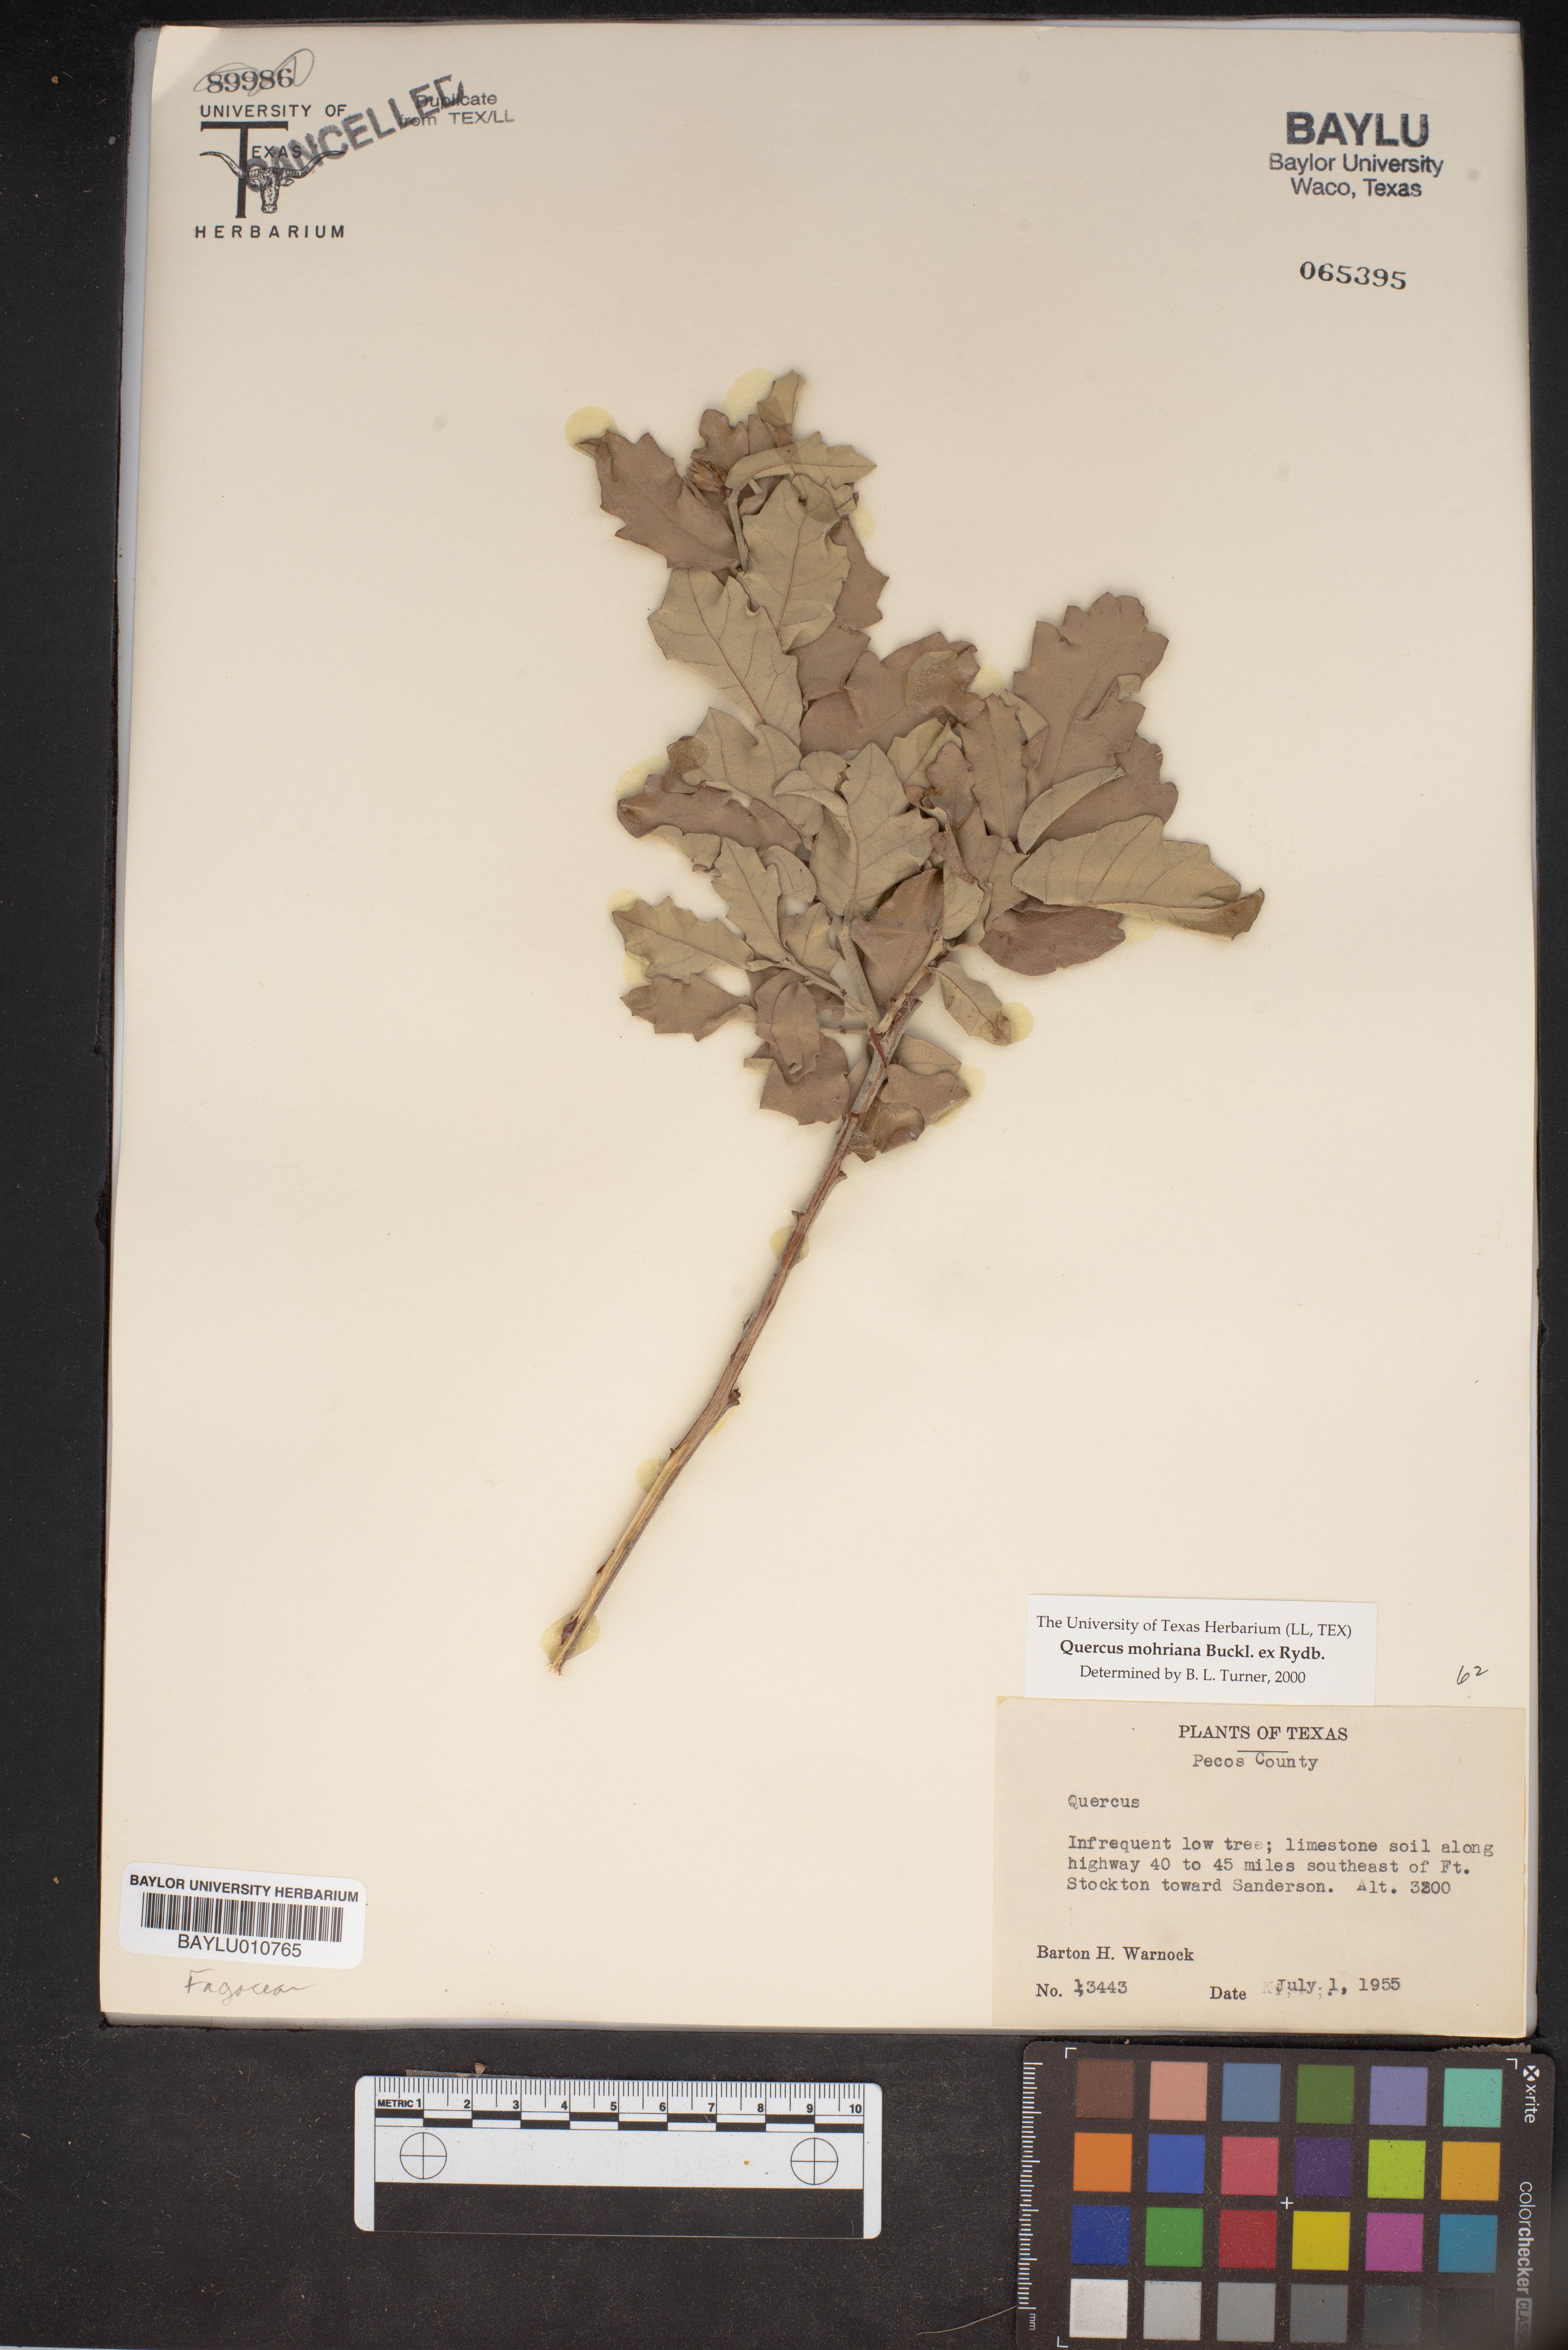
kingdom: Plantae
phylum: Tracheophyta
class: Magnoliopsida
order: Fagales
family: Fagaceae
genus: Quercus
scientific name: Quercus mohriana
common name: Mohr oak
